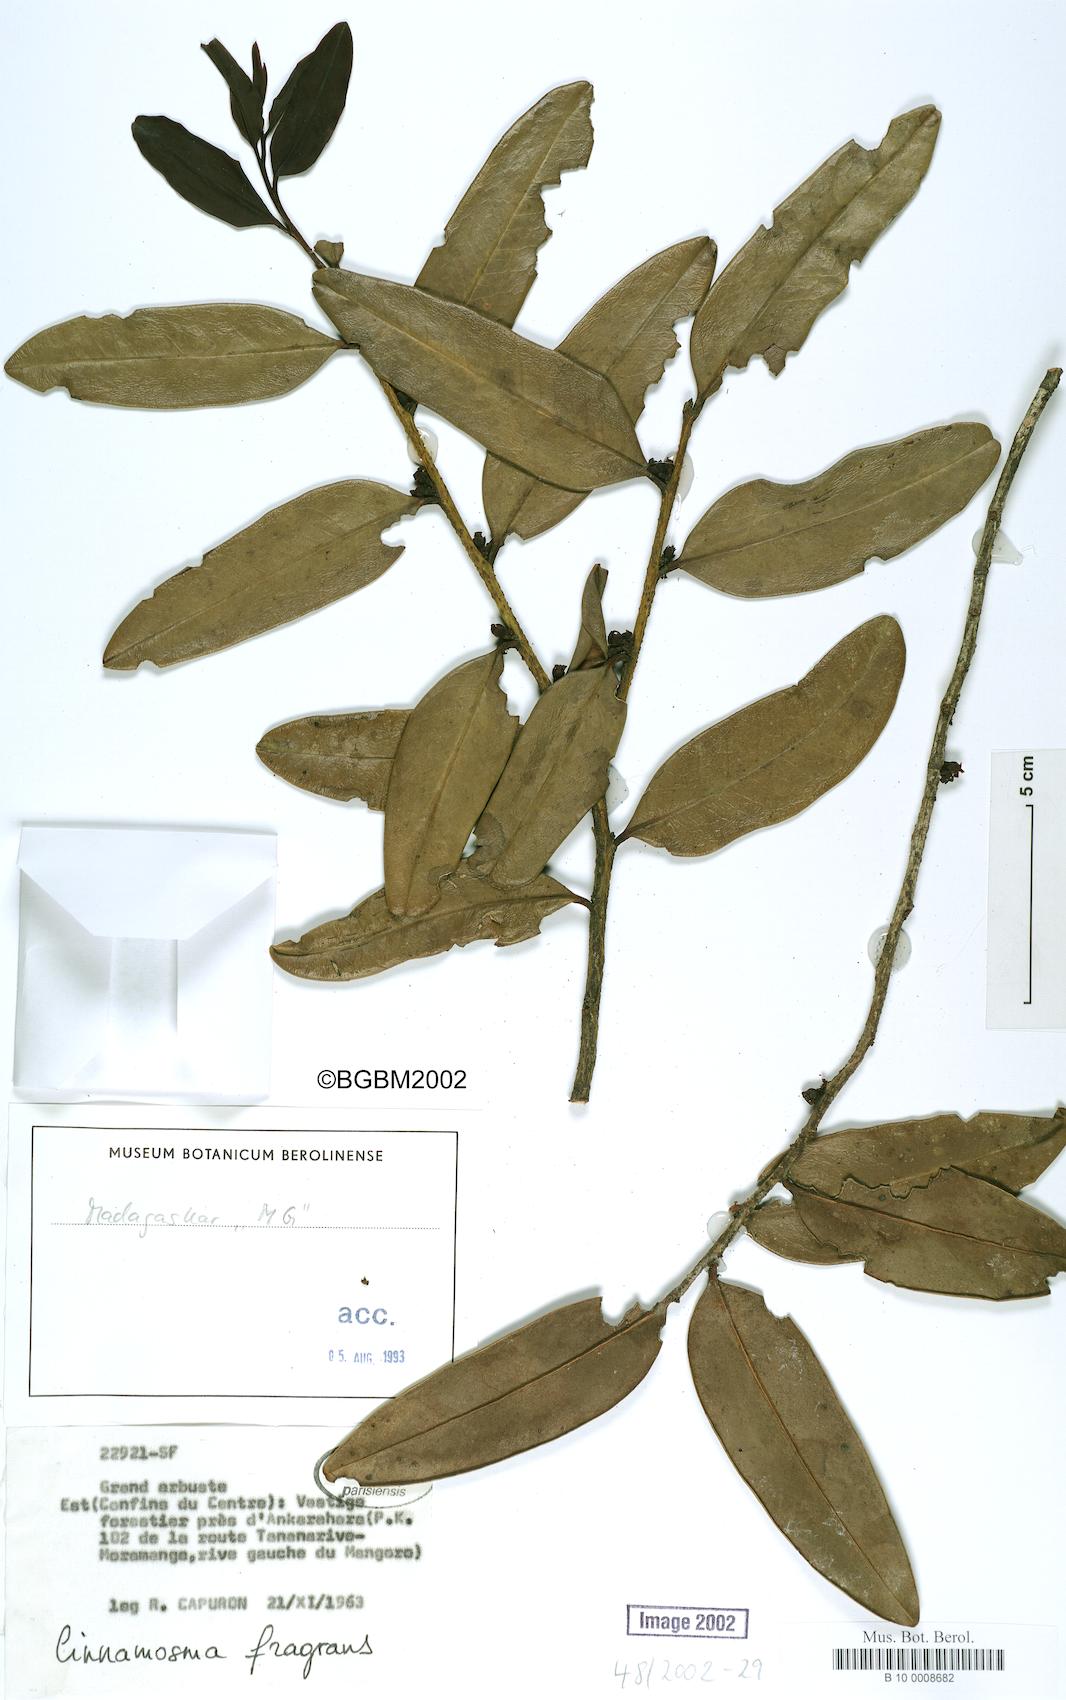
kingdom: Plantae
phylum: Tracheophyta
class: Magnoliopsida
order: Canellales
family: Canellaceae
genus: Cinnamosma
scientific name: Cinnamosma fragrans
